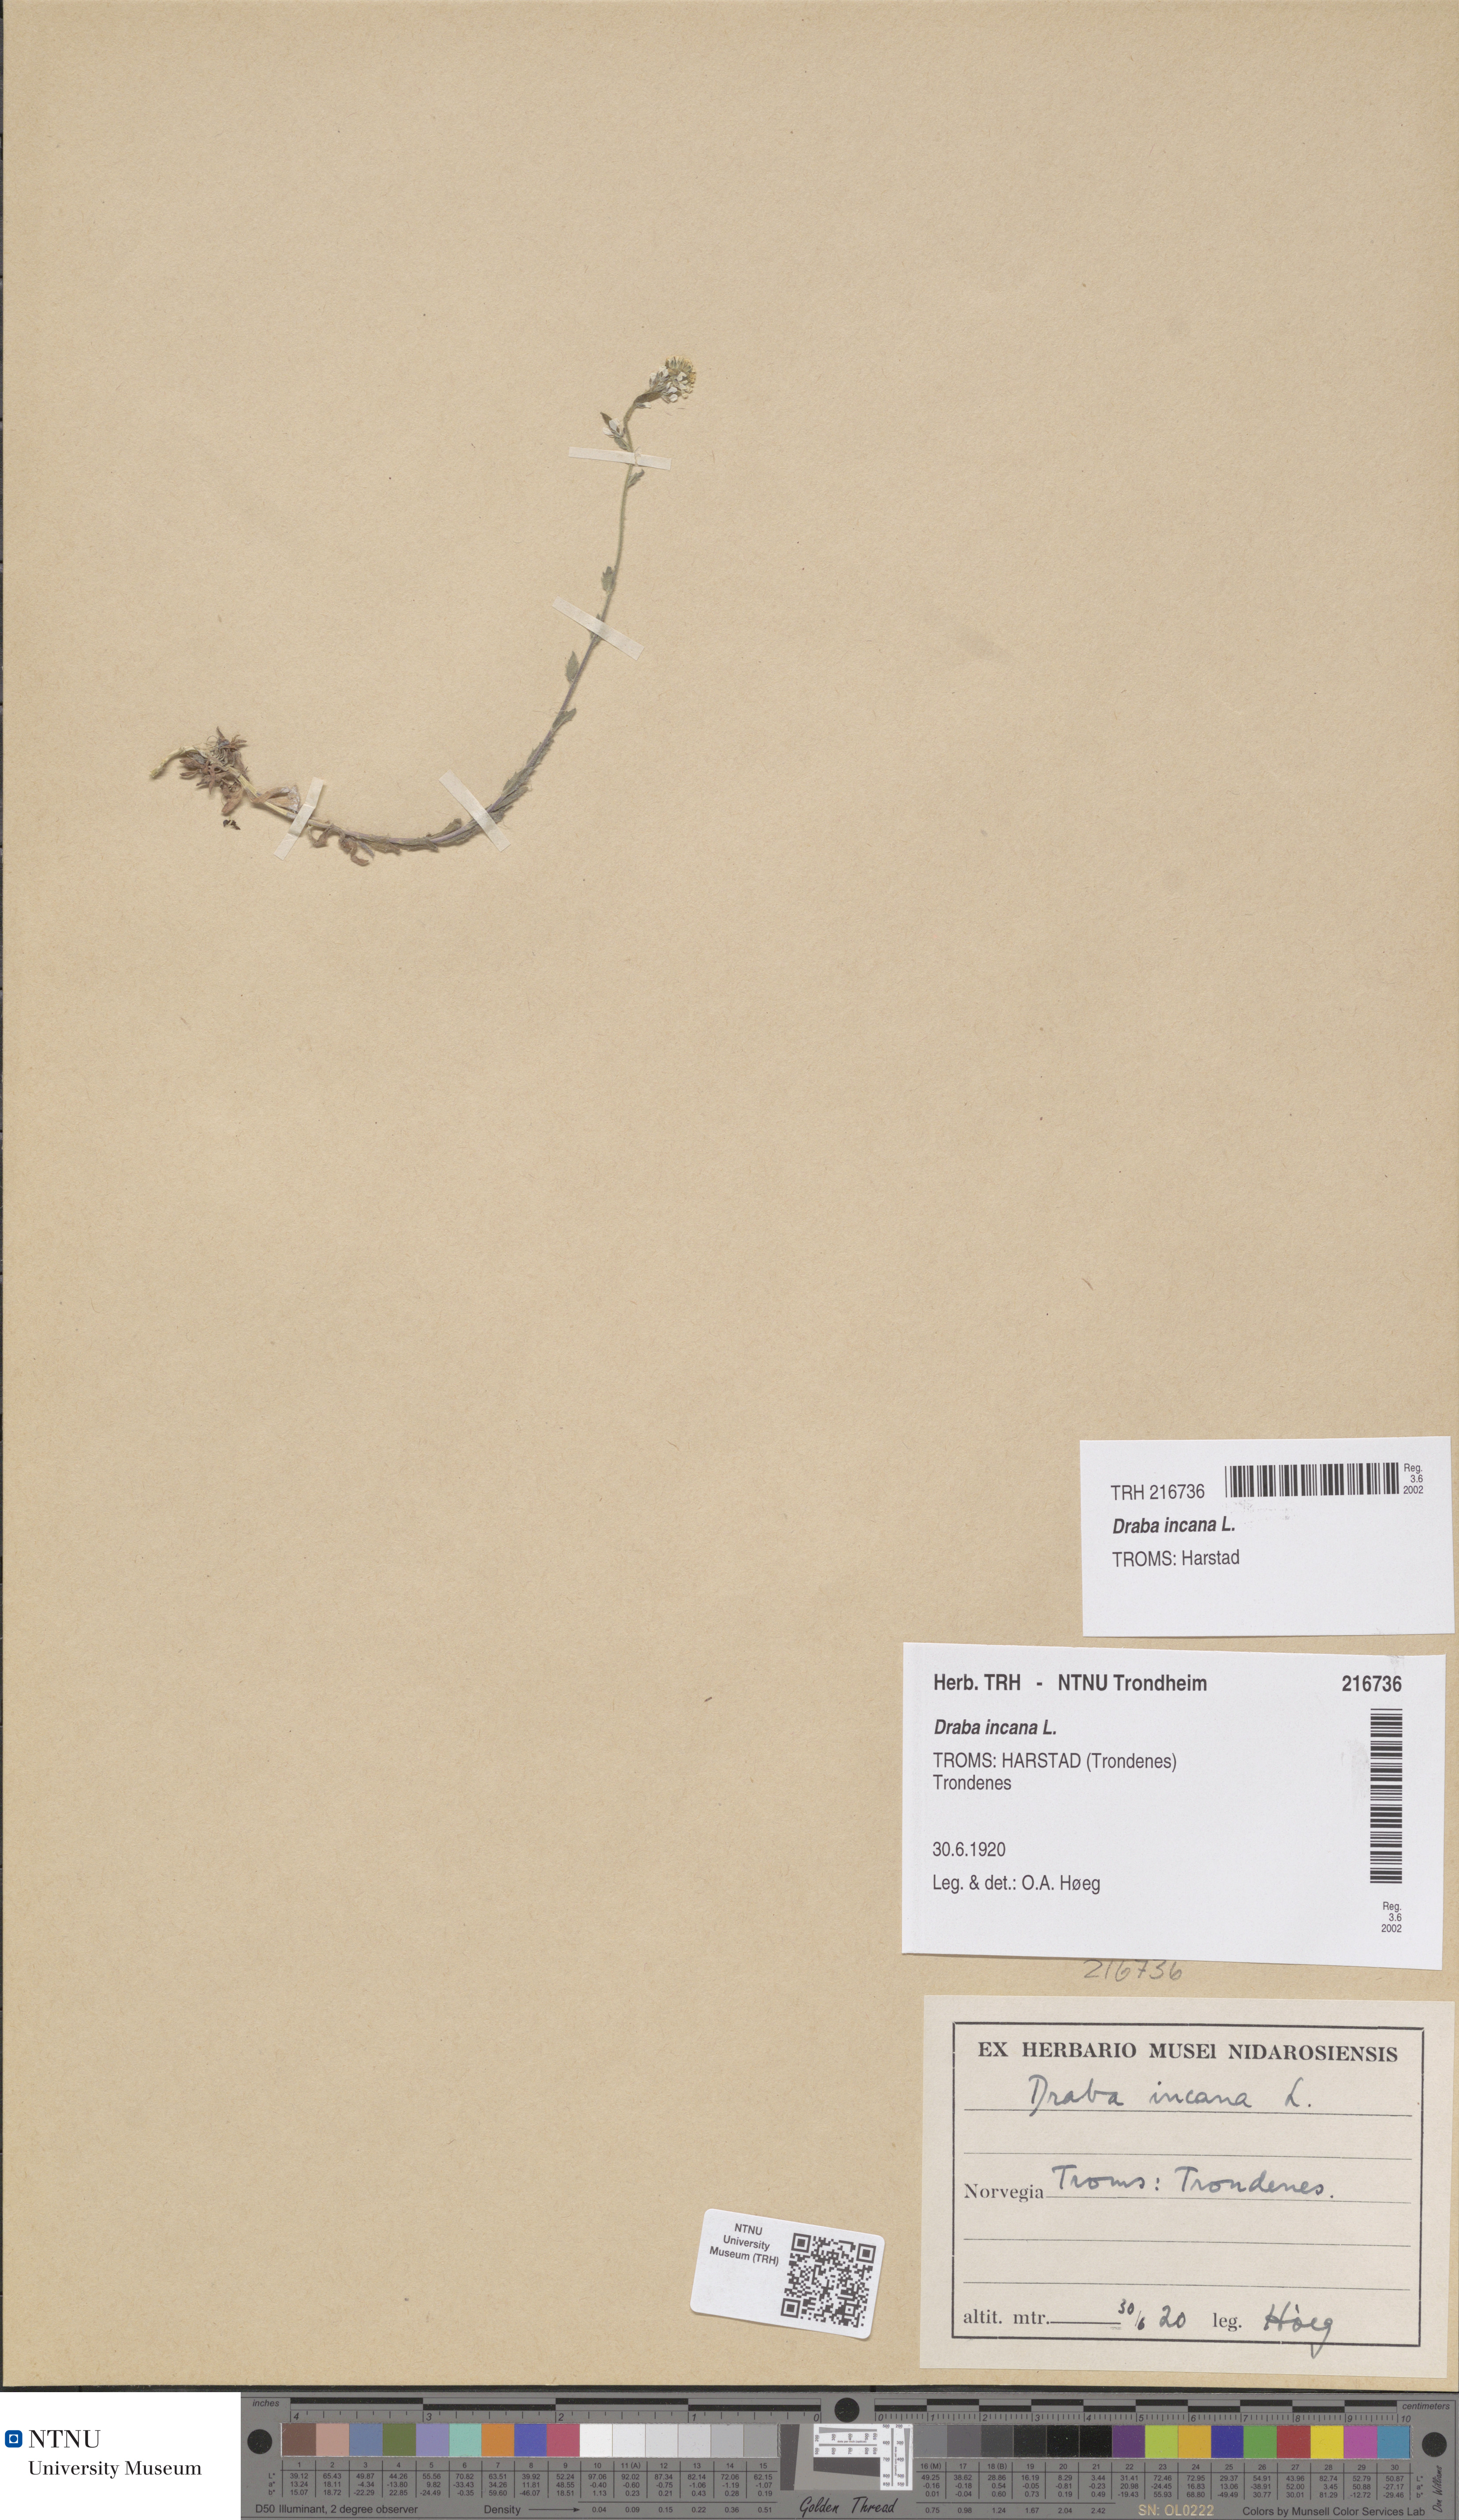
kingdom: Plantae
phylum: Tracheophyta
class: Magnoliopsida
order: Brassicales
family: Brassicaceae
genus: Draba
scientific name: Draba incana
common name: Hoary whitlow-grass
